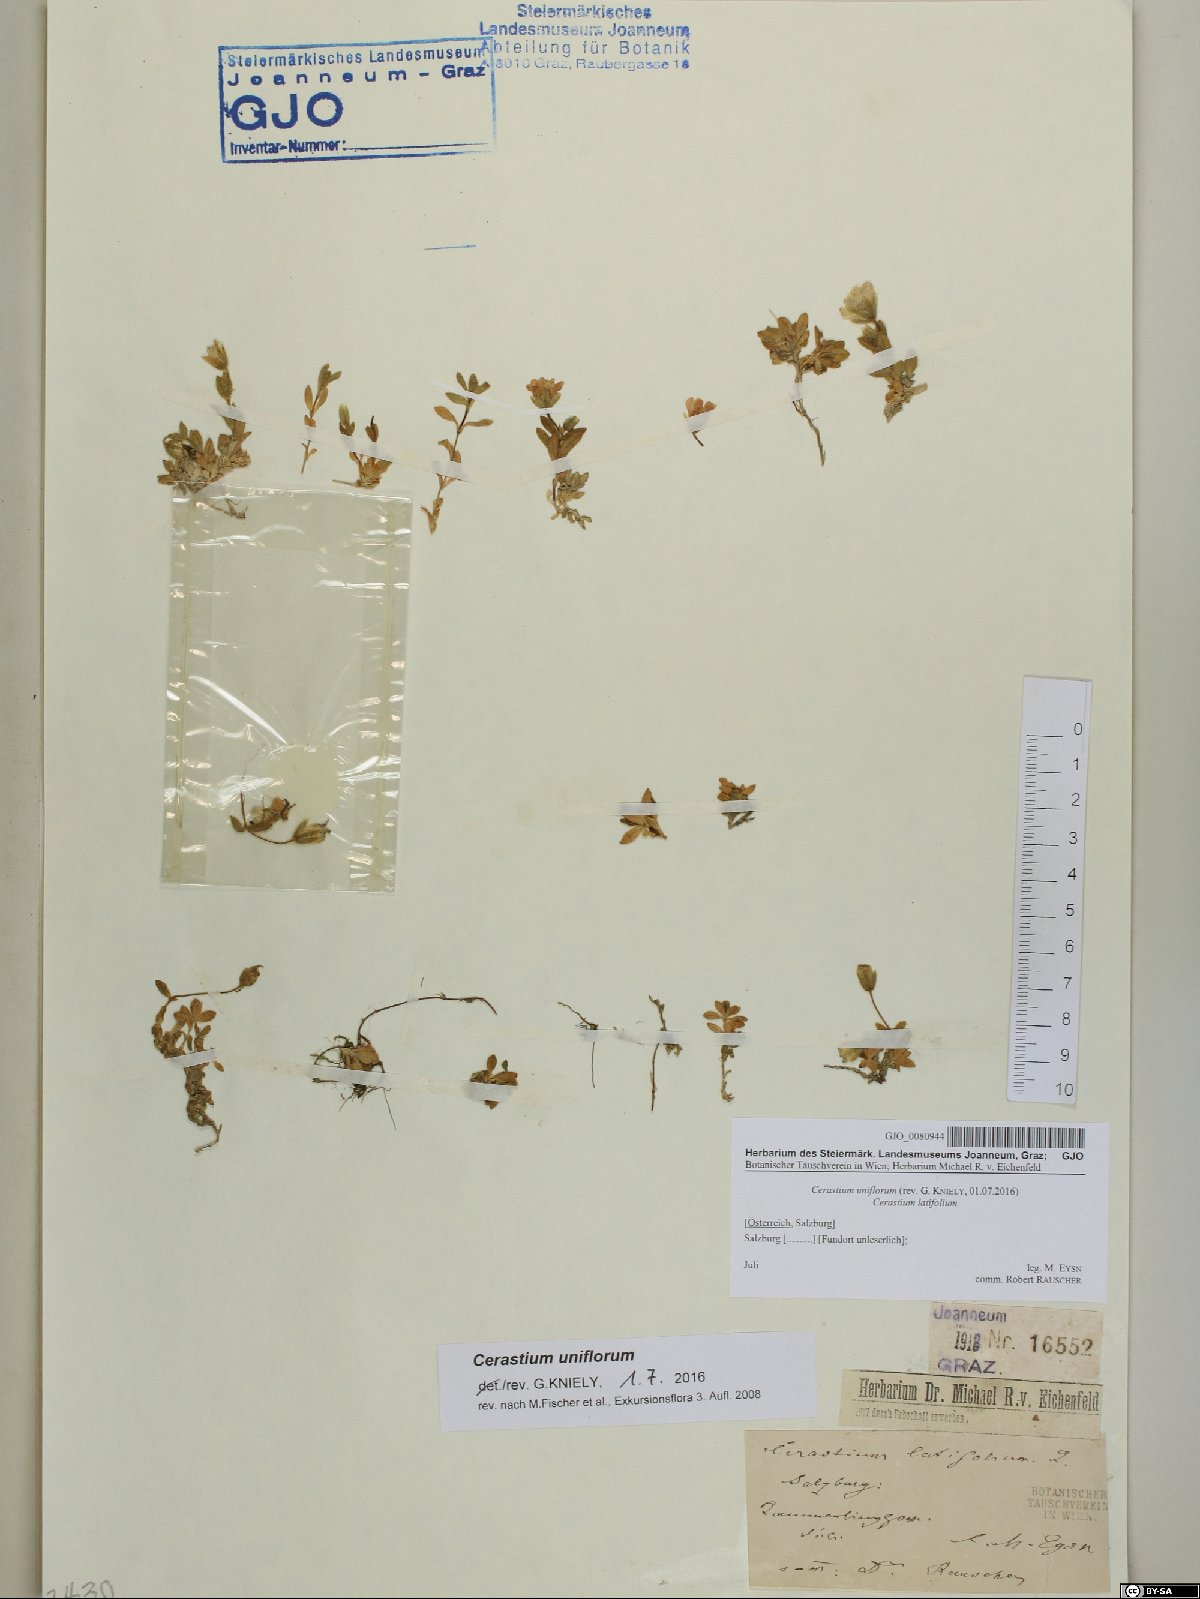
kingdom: Plantae
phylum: Tracheophyta
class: Magnoliopsida
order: Caryophyllales
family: Caryophyllaceae
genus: Cerastium
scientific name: Cerastium uniflorum
